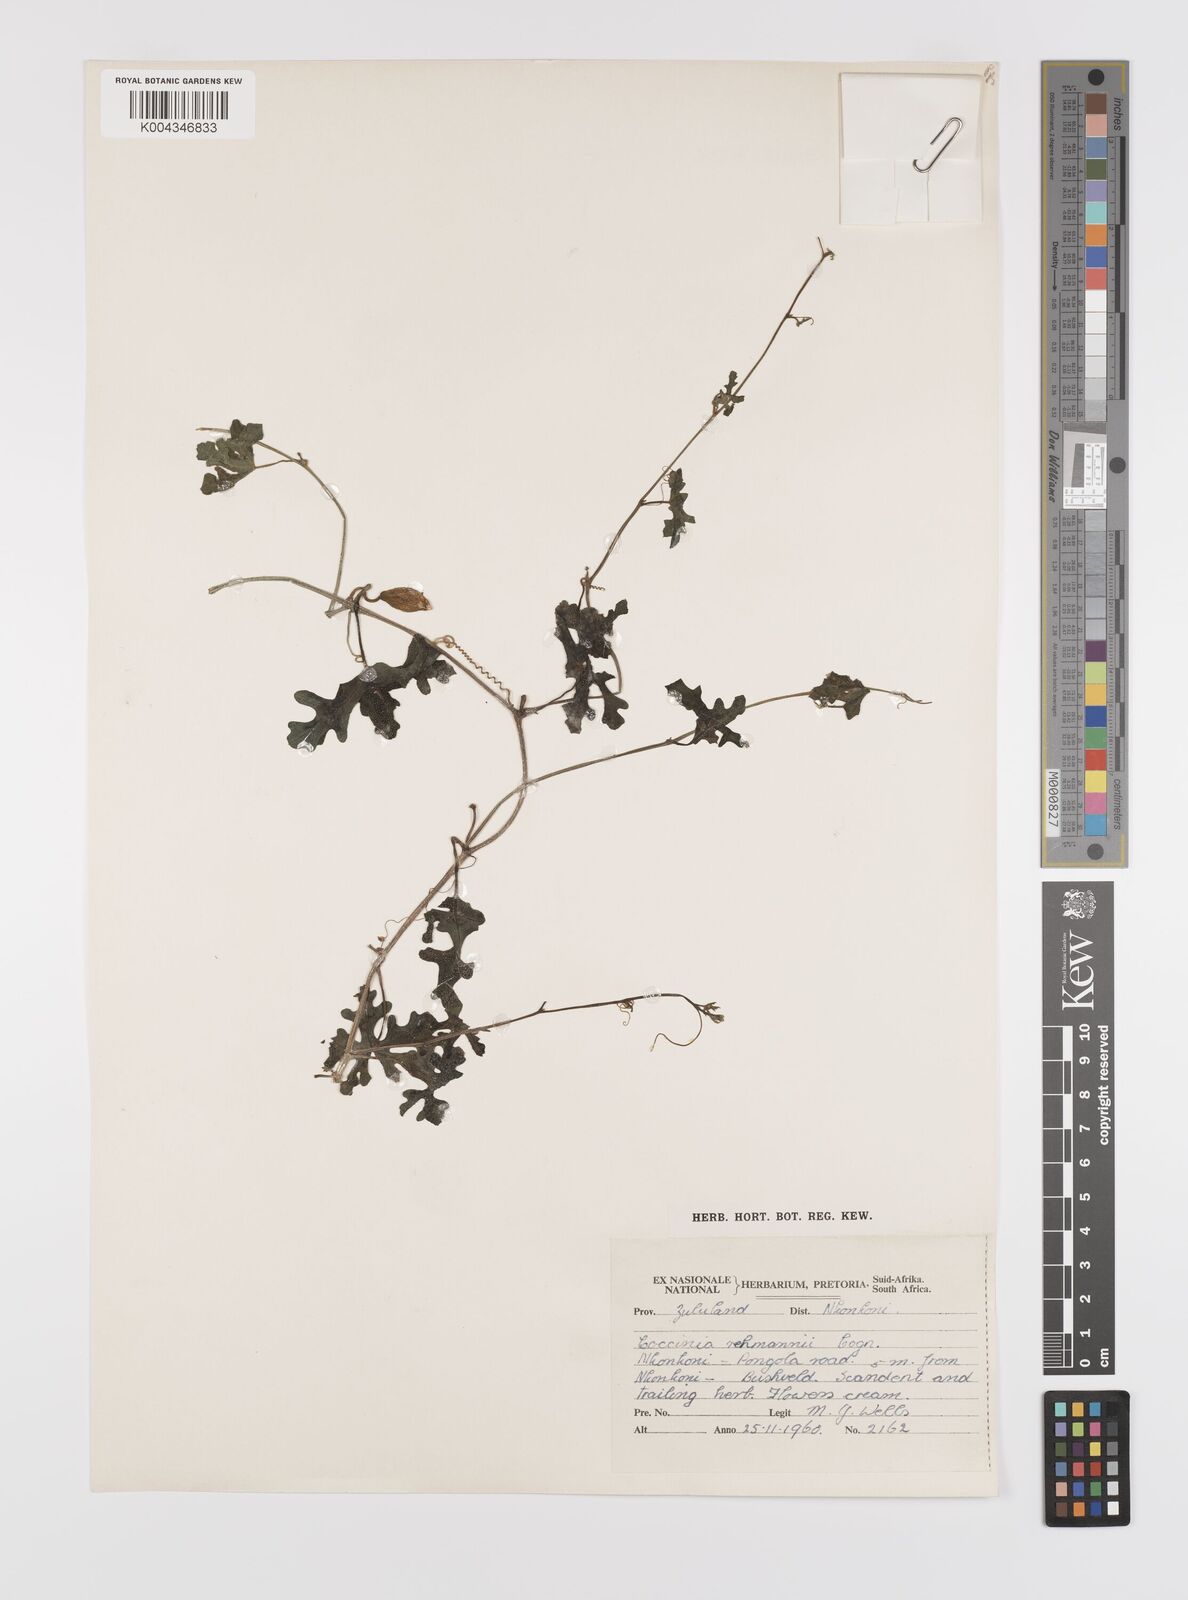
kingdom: Plantae
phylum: Tracheophyta
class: Magnoliopsida
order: Cucurbitales
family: Cucurbitaceae
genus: Coccinia
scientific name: Coccinia rehmannii
